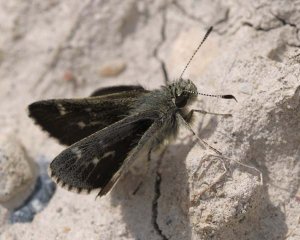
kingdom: Animalia
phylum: Arthropoda
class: Insecta
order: Lepidoptera
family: Hesperiidae
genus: Mastor
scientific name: Mastor hegon
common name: Pepper and Salt Skipper
